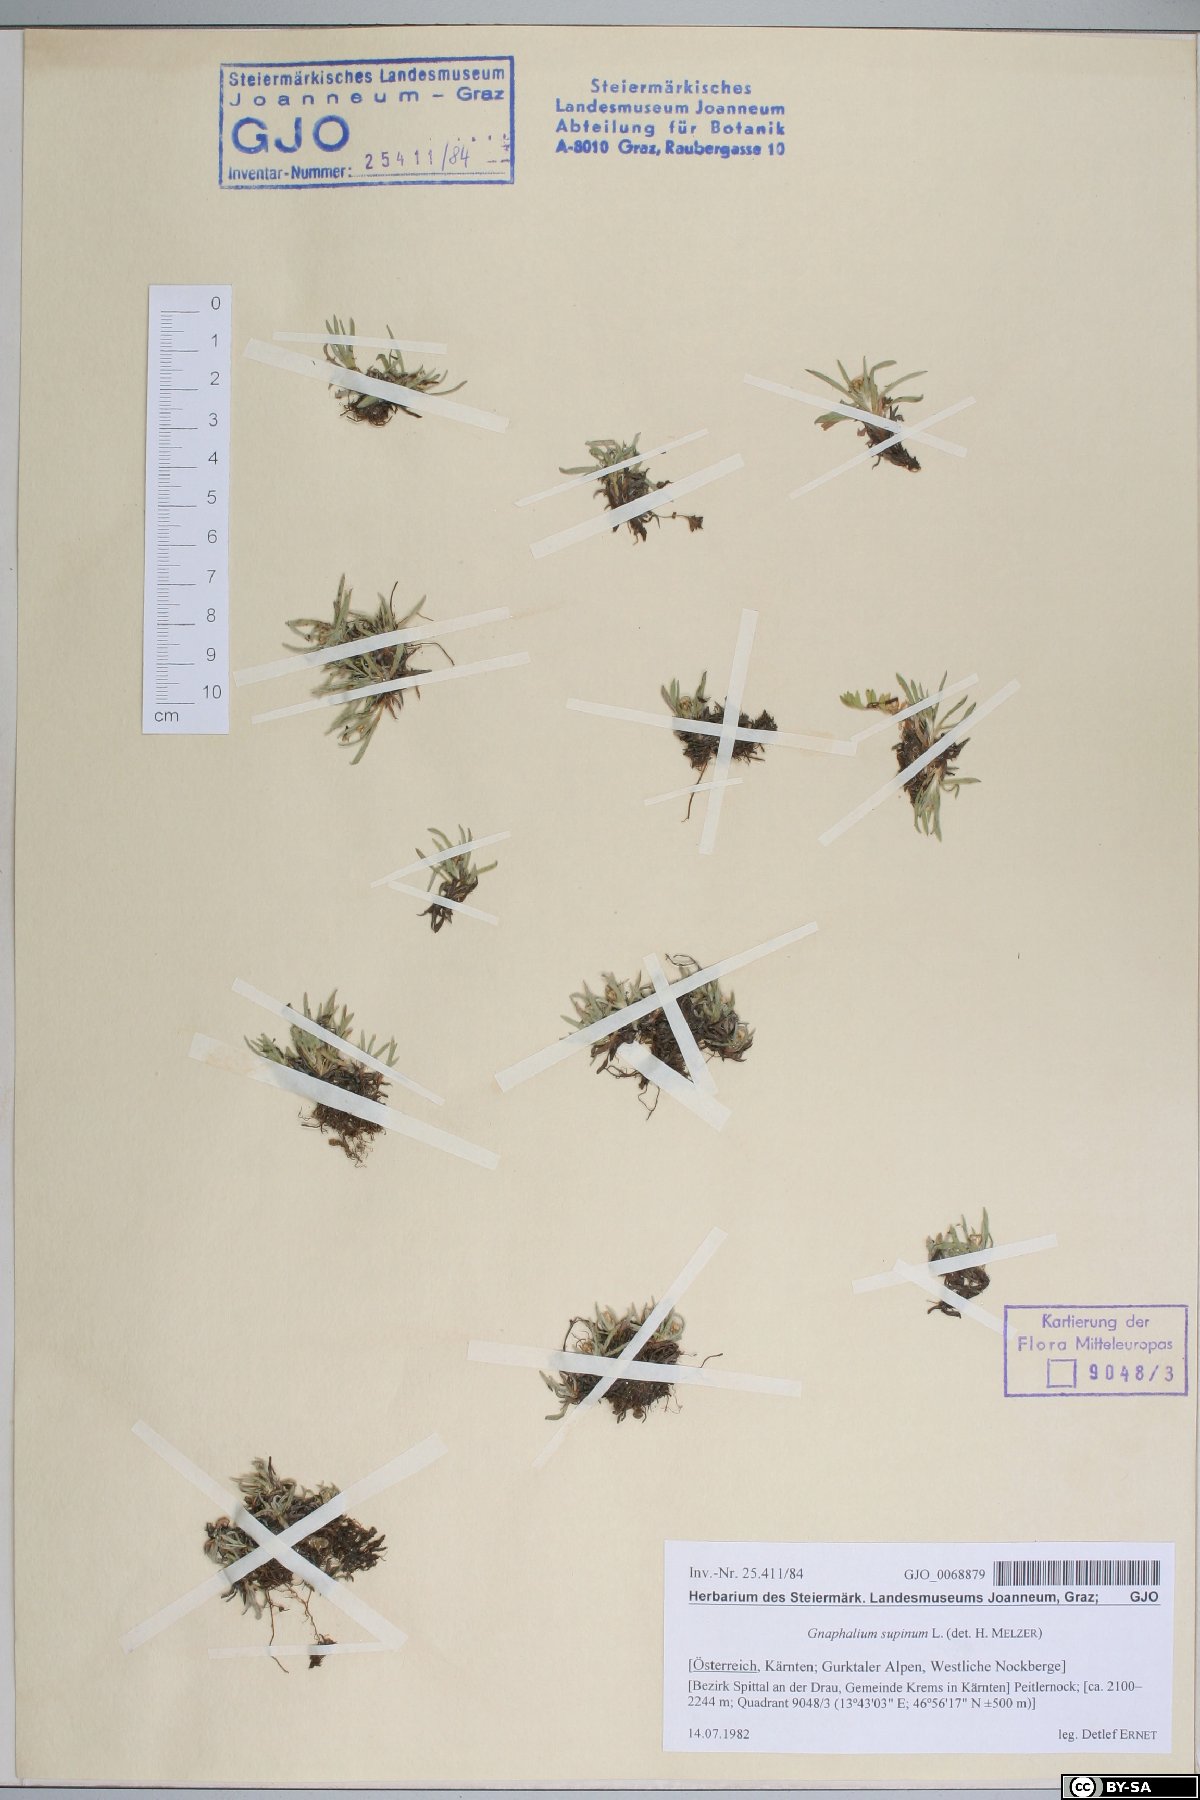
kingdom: Plantae
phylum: Tracheophyta
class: Magnoliopsida
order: Asterales
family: Asteraceae
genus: Omalotheca
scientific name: Omalotheca supina
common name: Alpine arctic-cudweed
